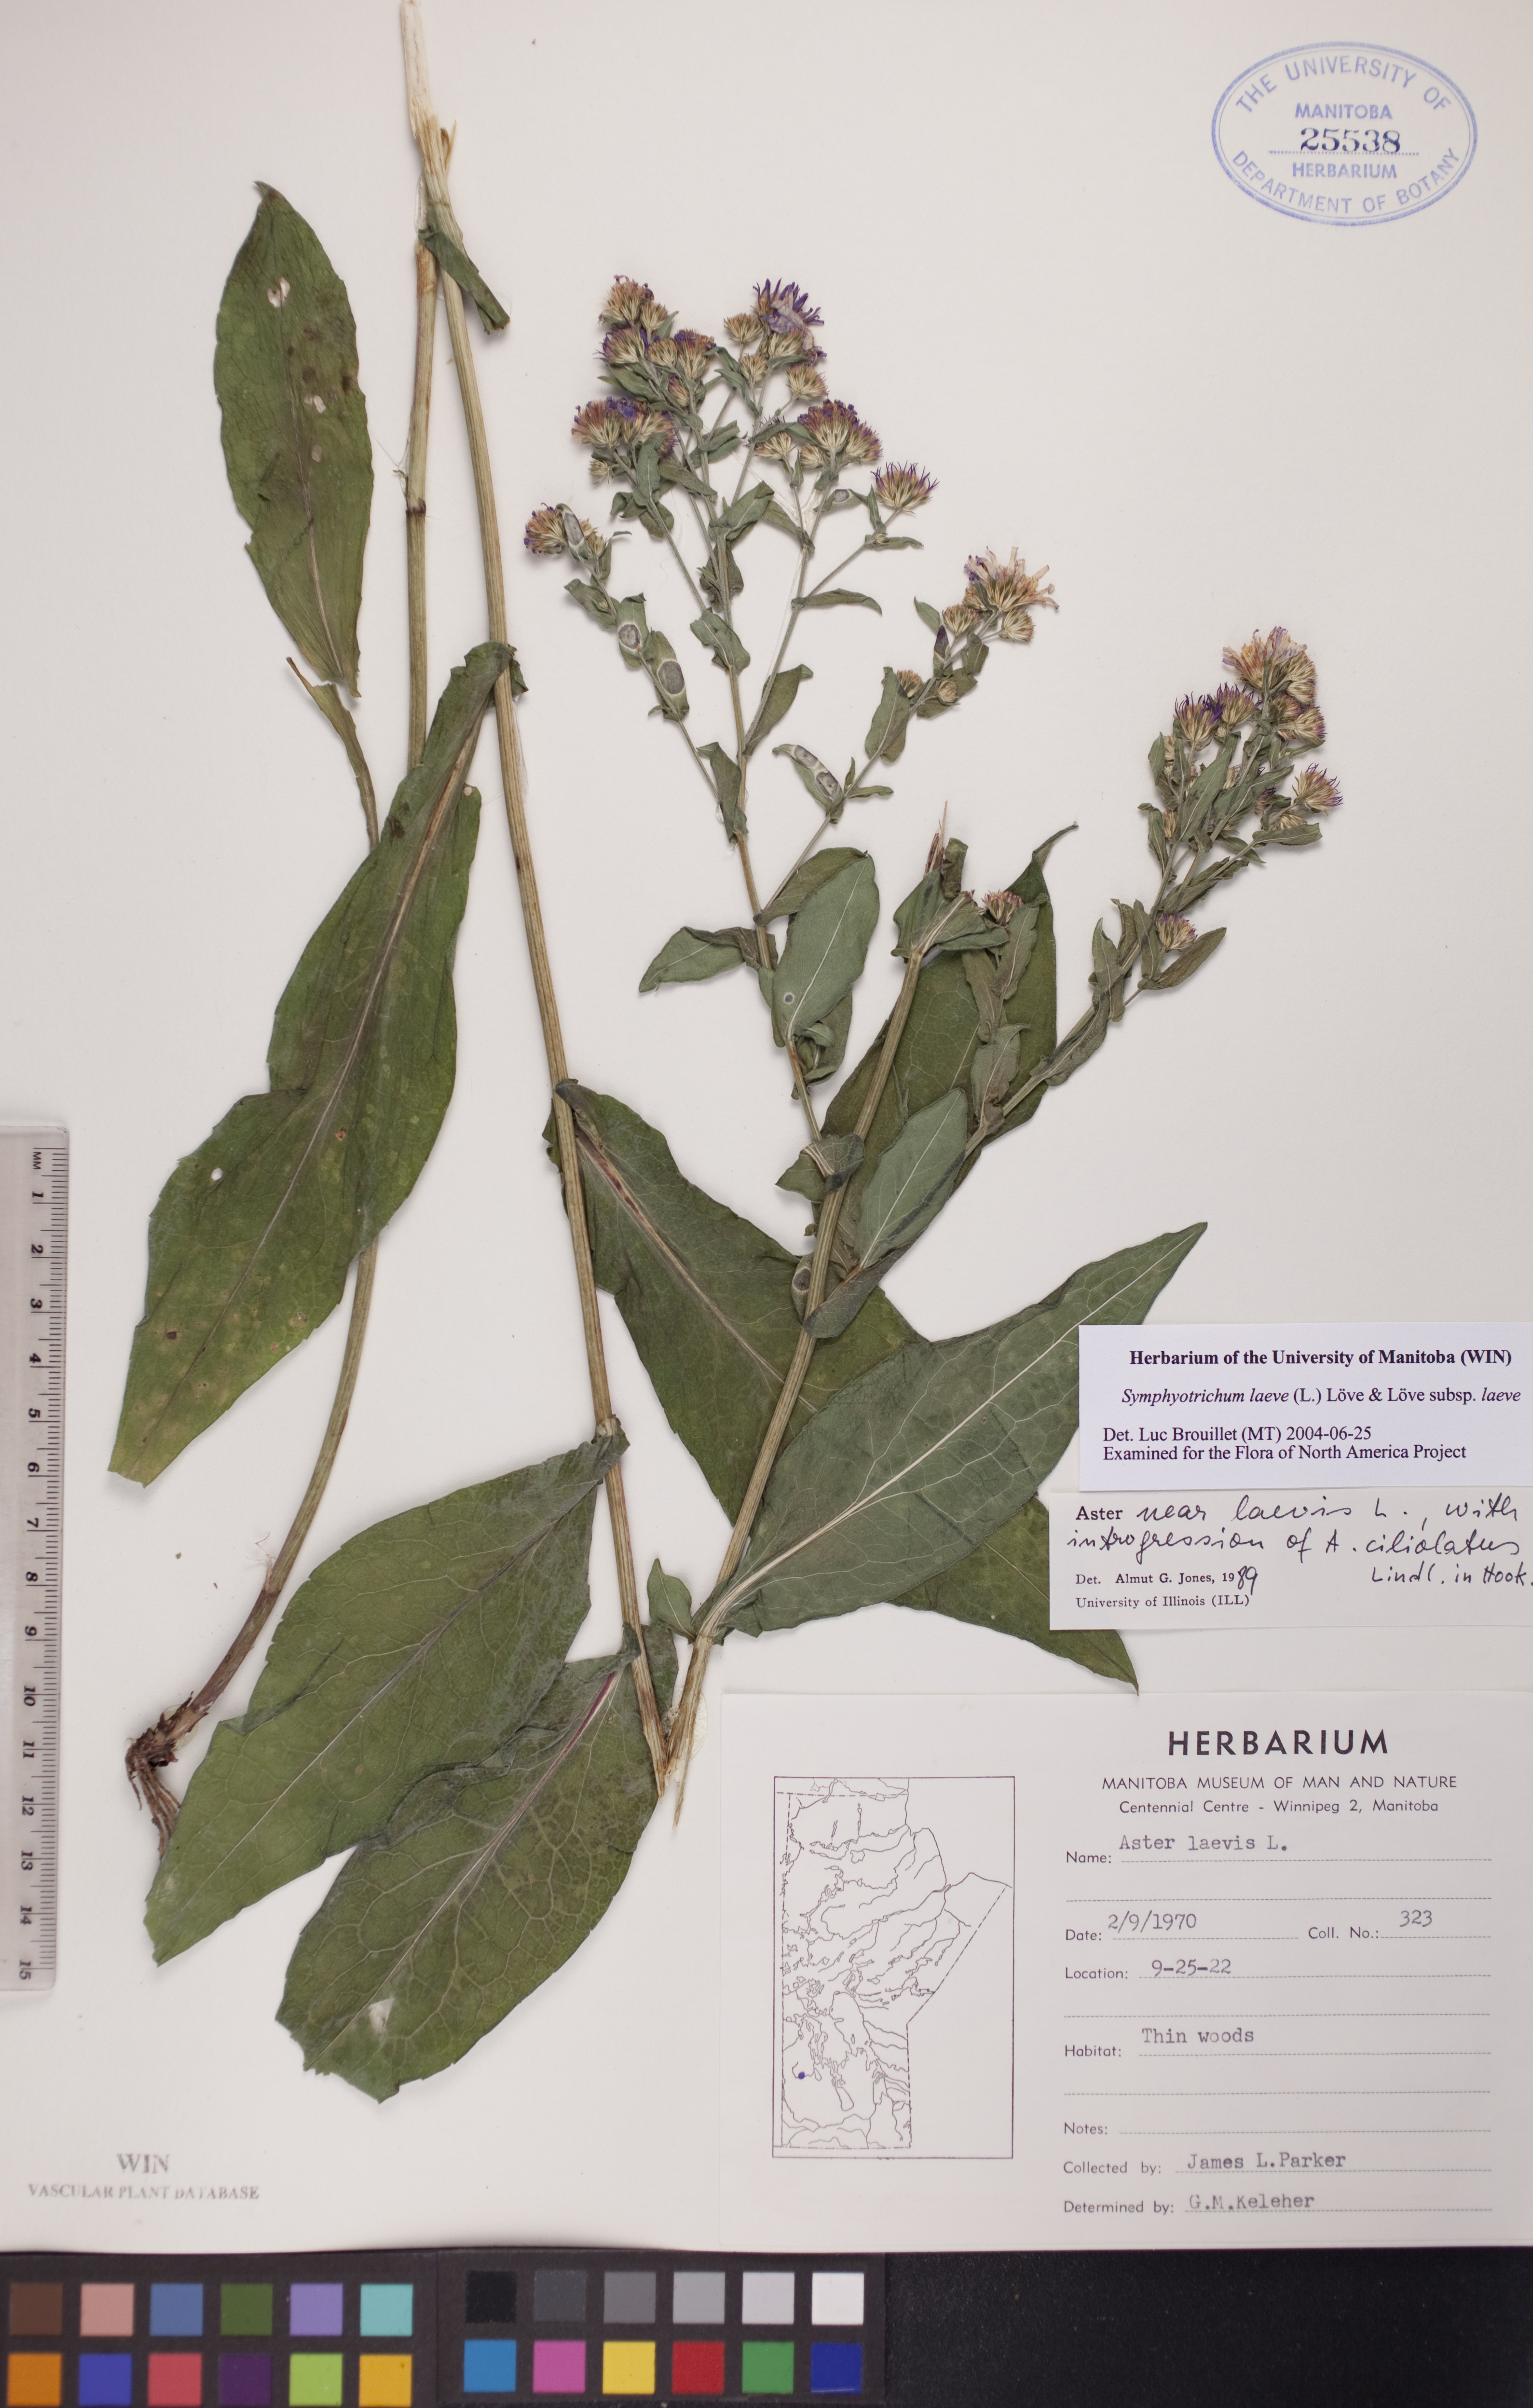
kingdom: Plantae
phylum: Tracheophyta
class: Magnoliopsida
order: Asterales
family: Asteraceae
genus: Symphyotrichum
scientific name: Symphyotrichum laeve
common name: Glaucous aster
